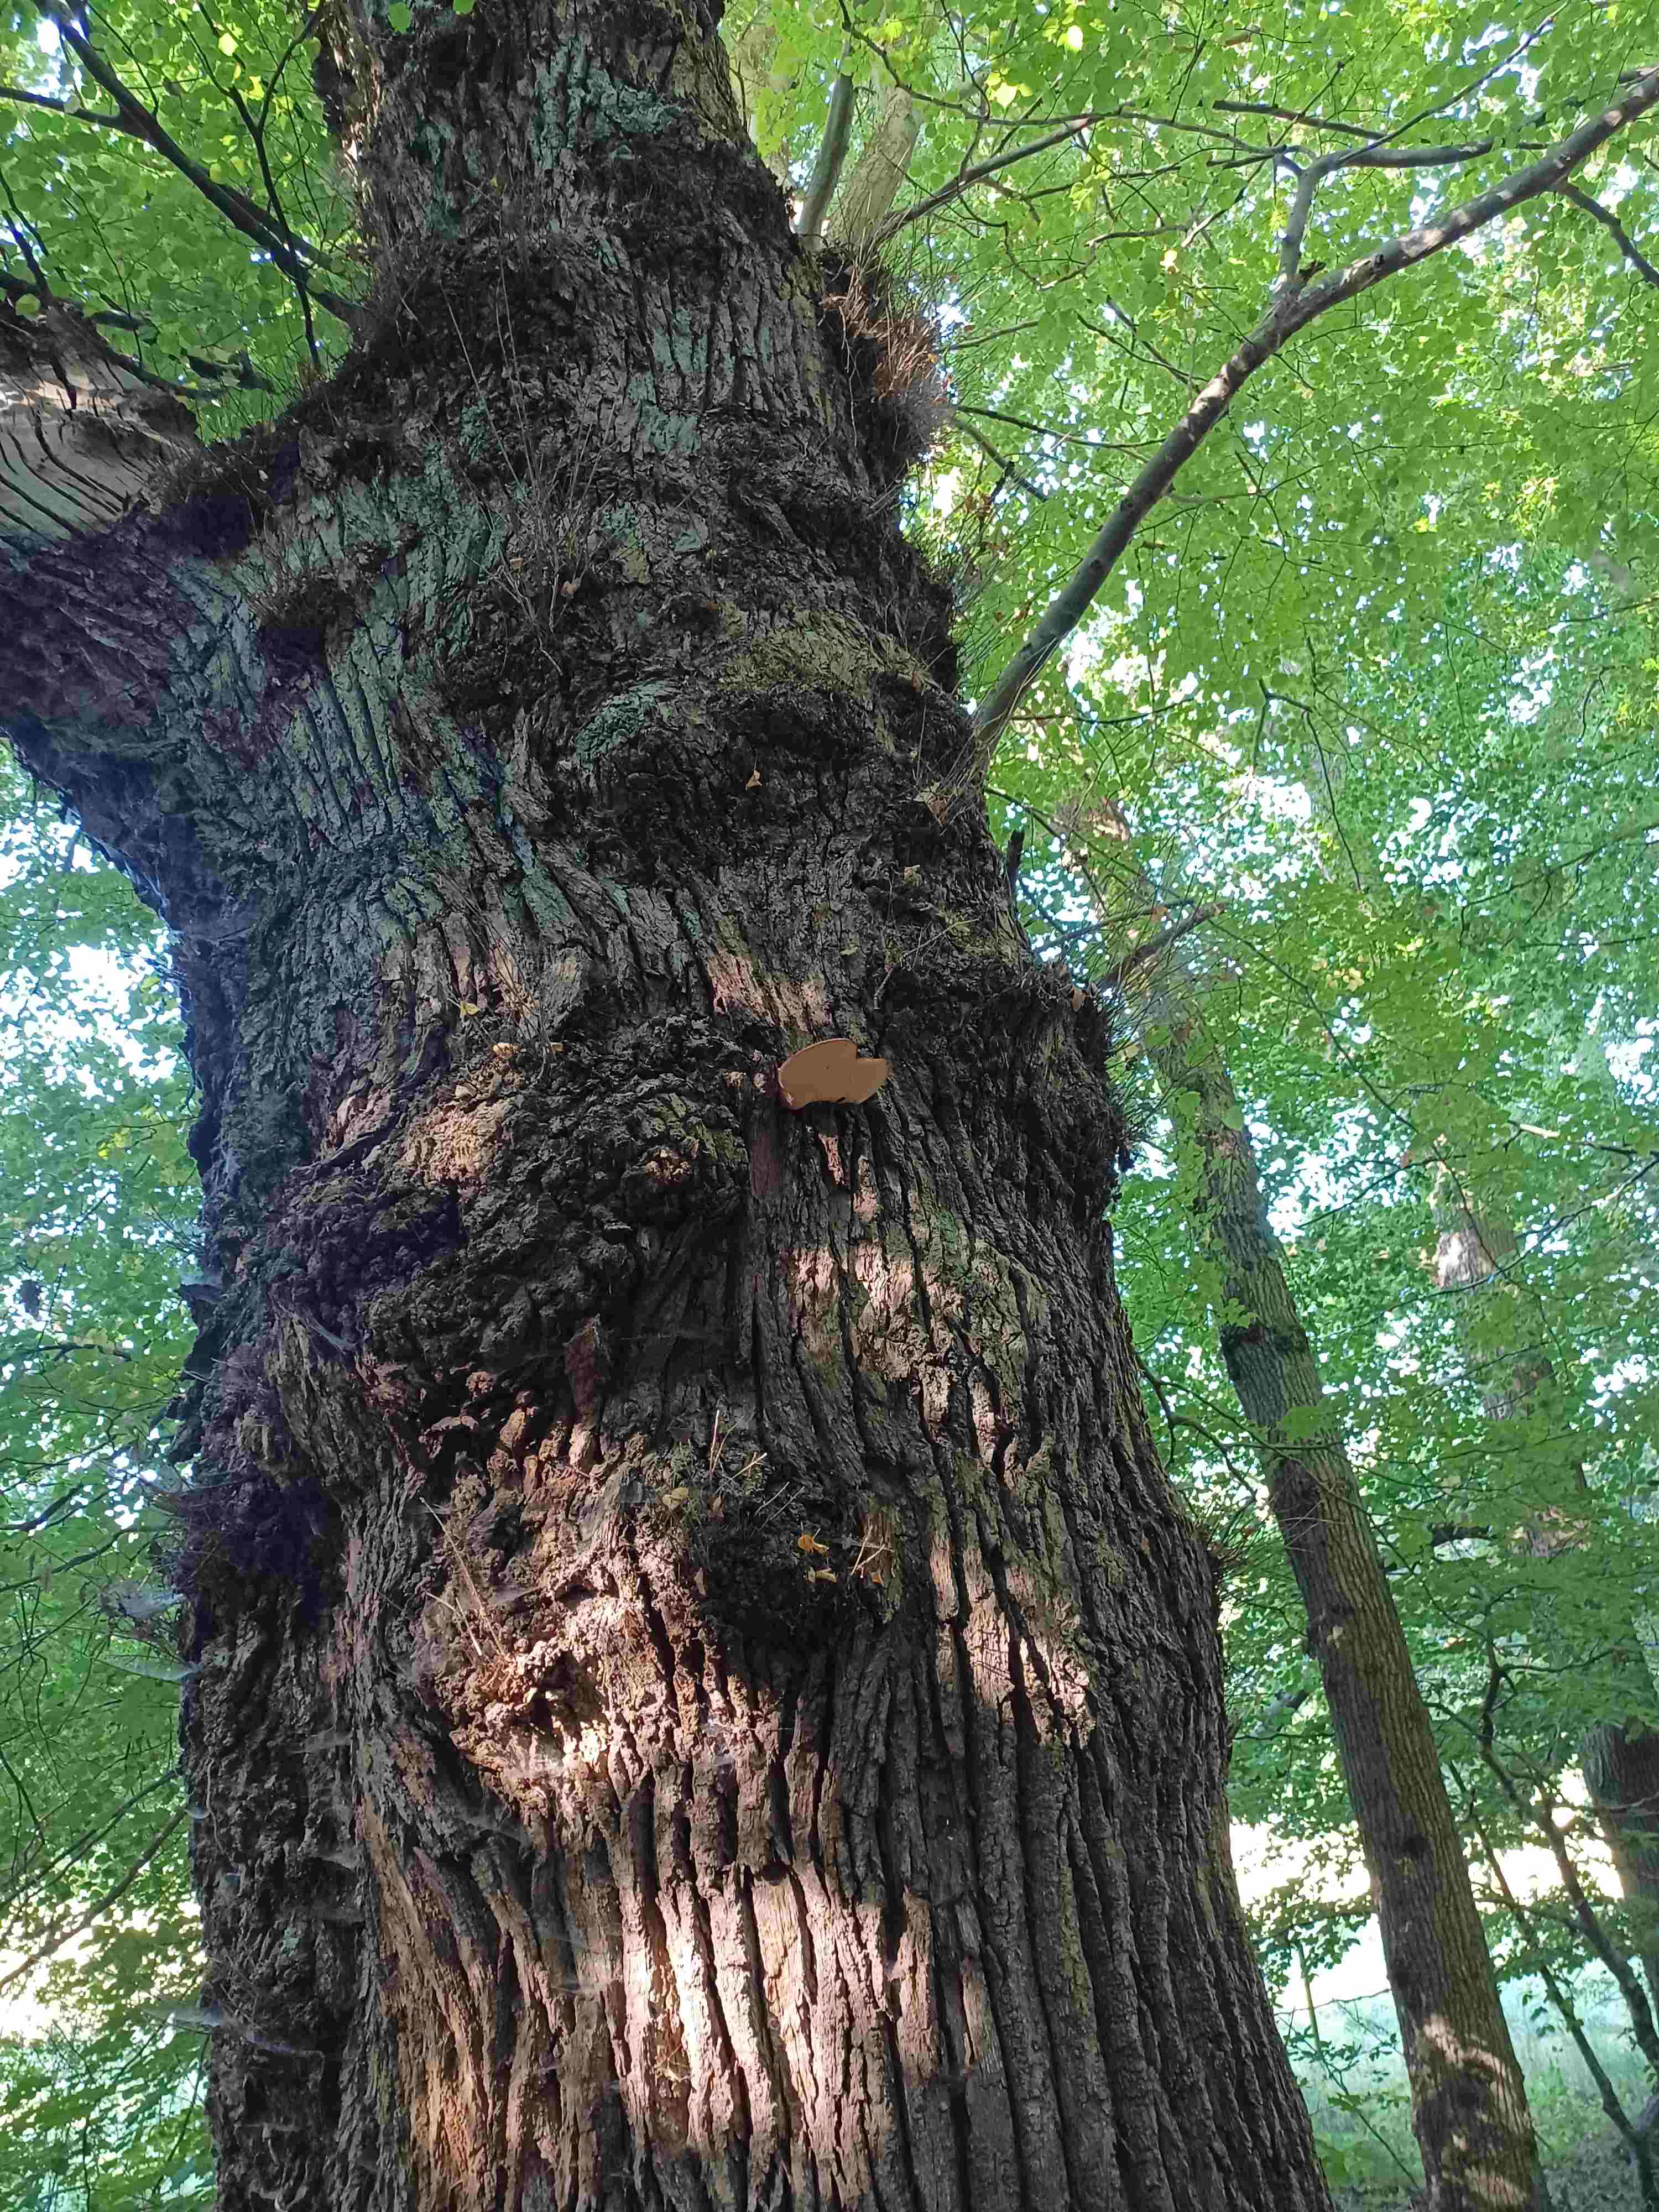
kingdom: Fungi
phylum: Basidiomycota
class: Agaricomycetes
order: Agaricales
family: Fistulinaceae
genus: Fistulina
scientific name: Fistulina hepatica
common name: oksetunge
